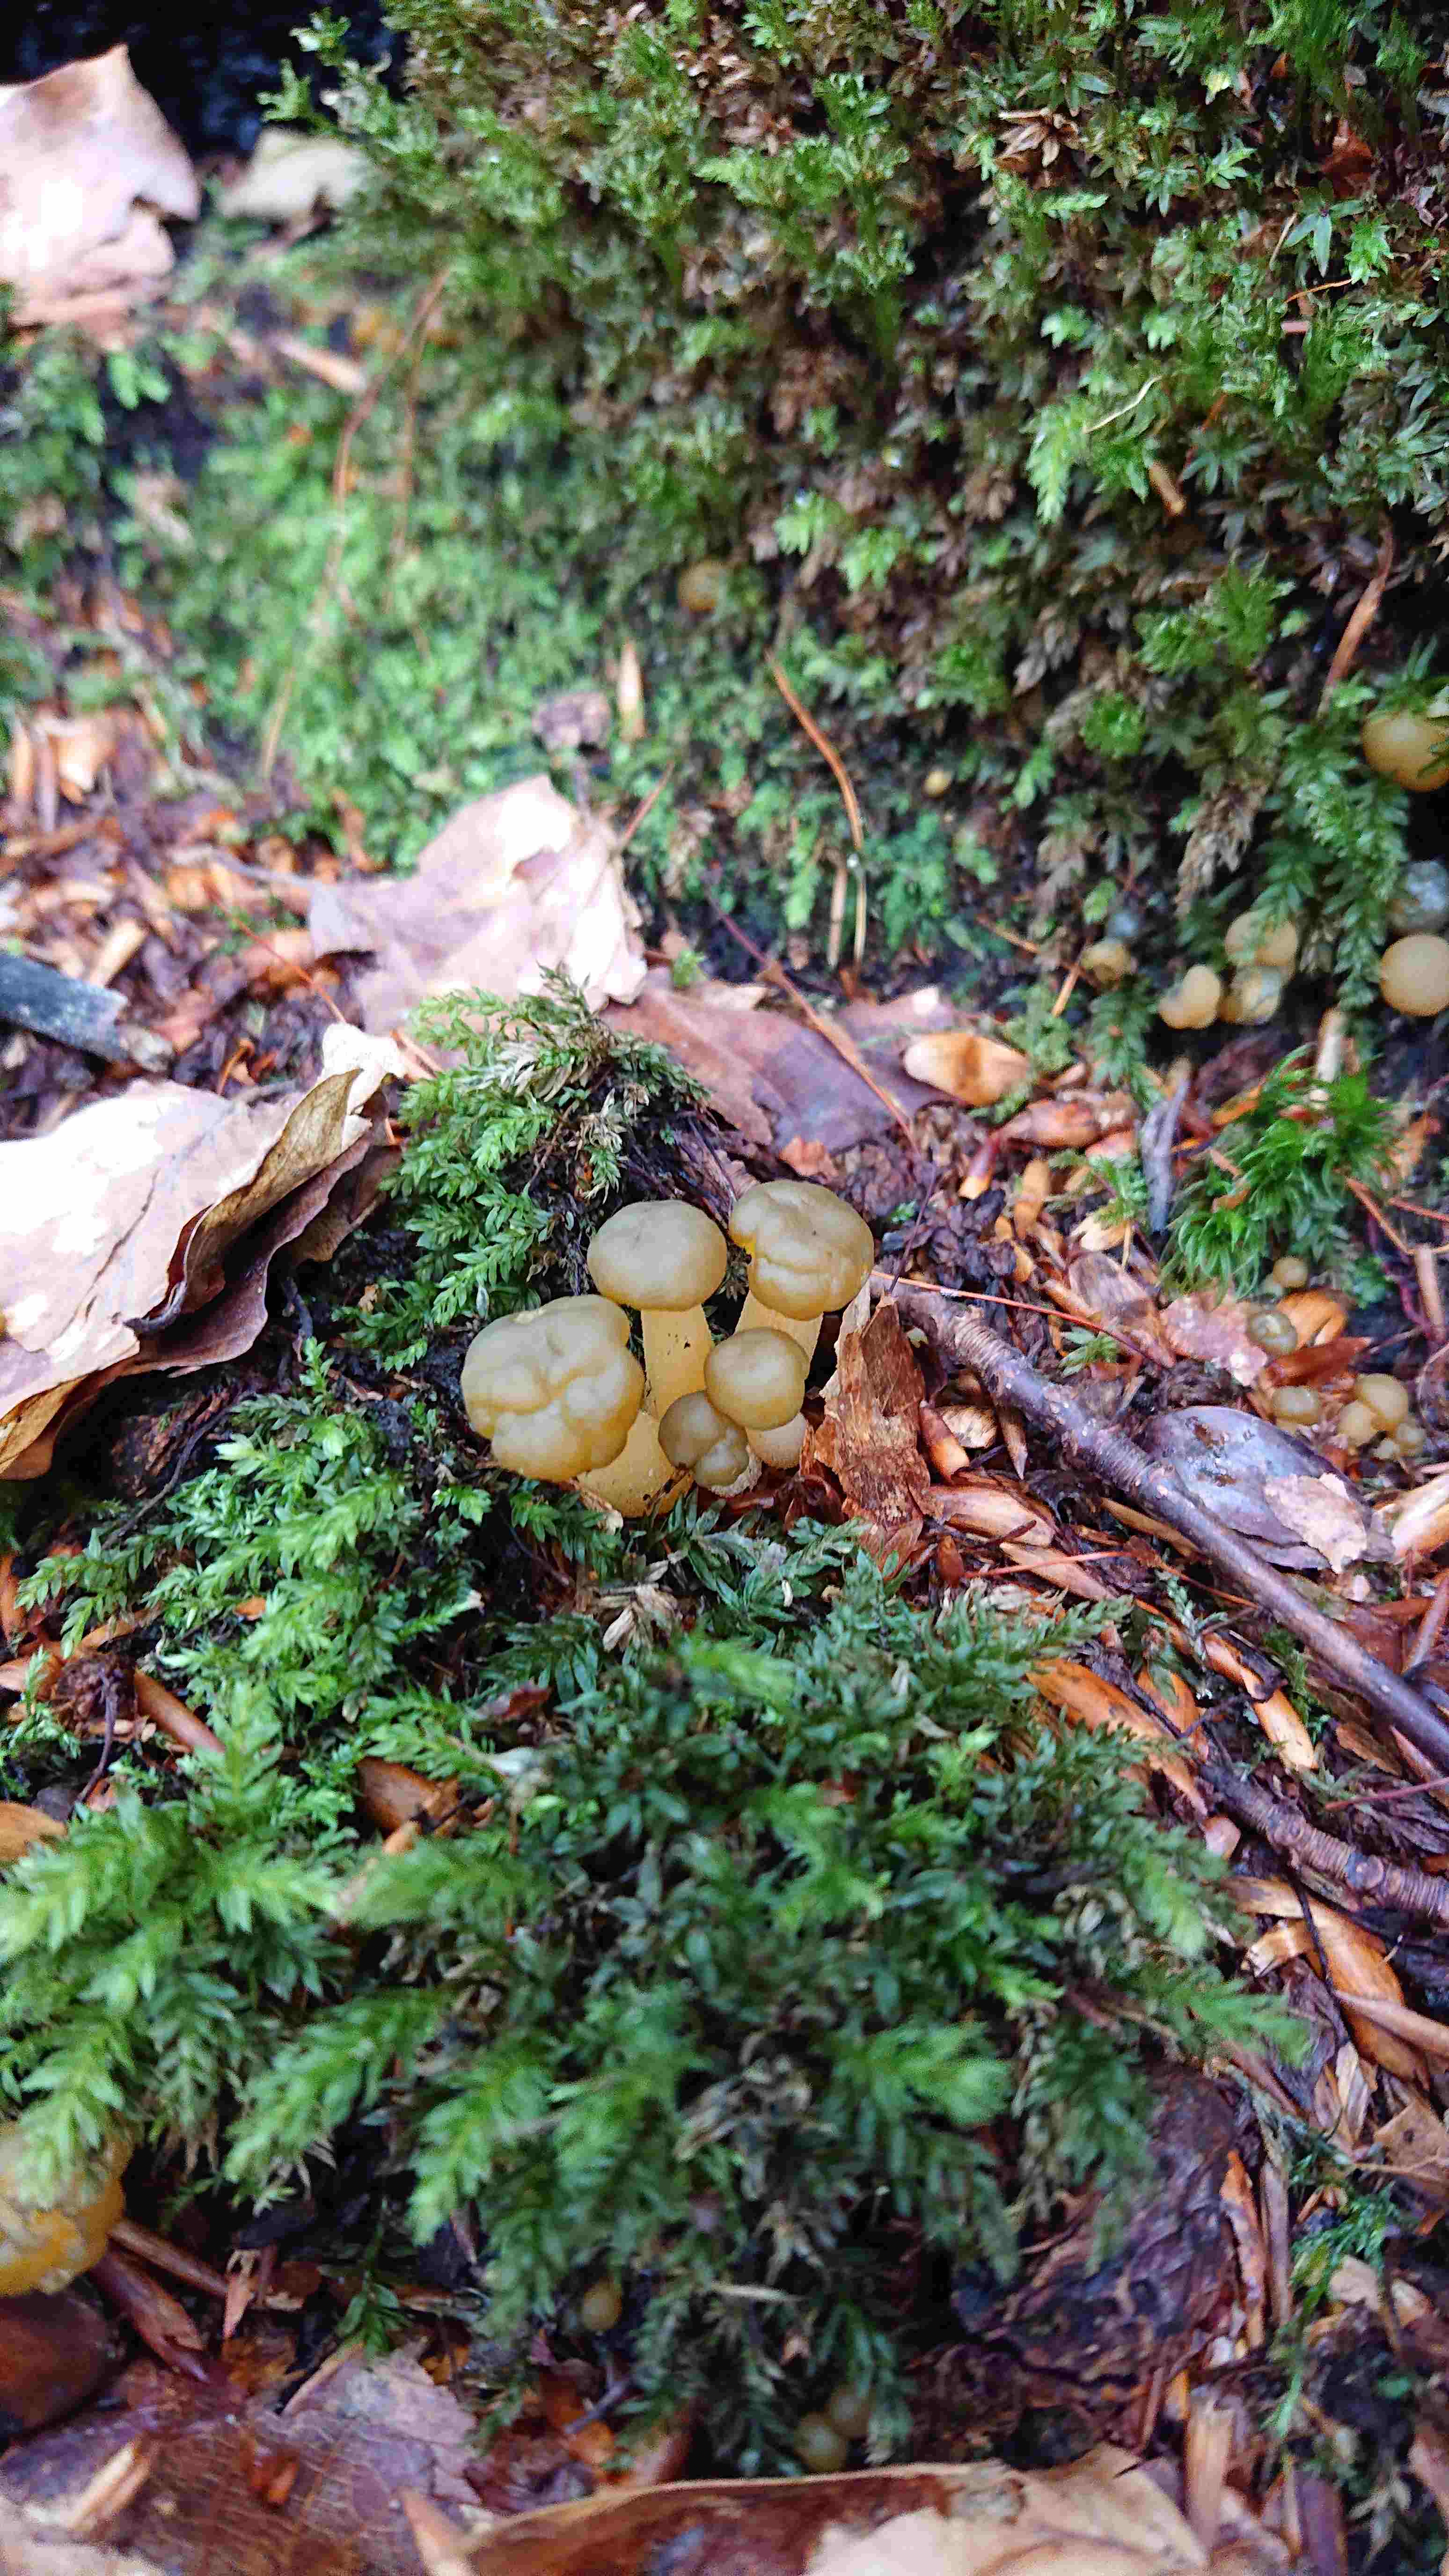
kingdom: Fungi
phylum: Ascomycota
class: Leotiomycetes
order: Leotiales
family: Leotiaceae
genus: Leotia
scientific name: Leotia lubrica
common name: ravsvamp
